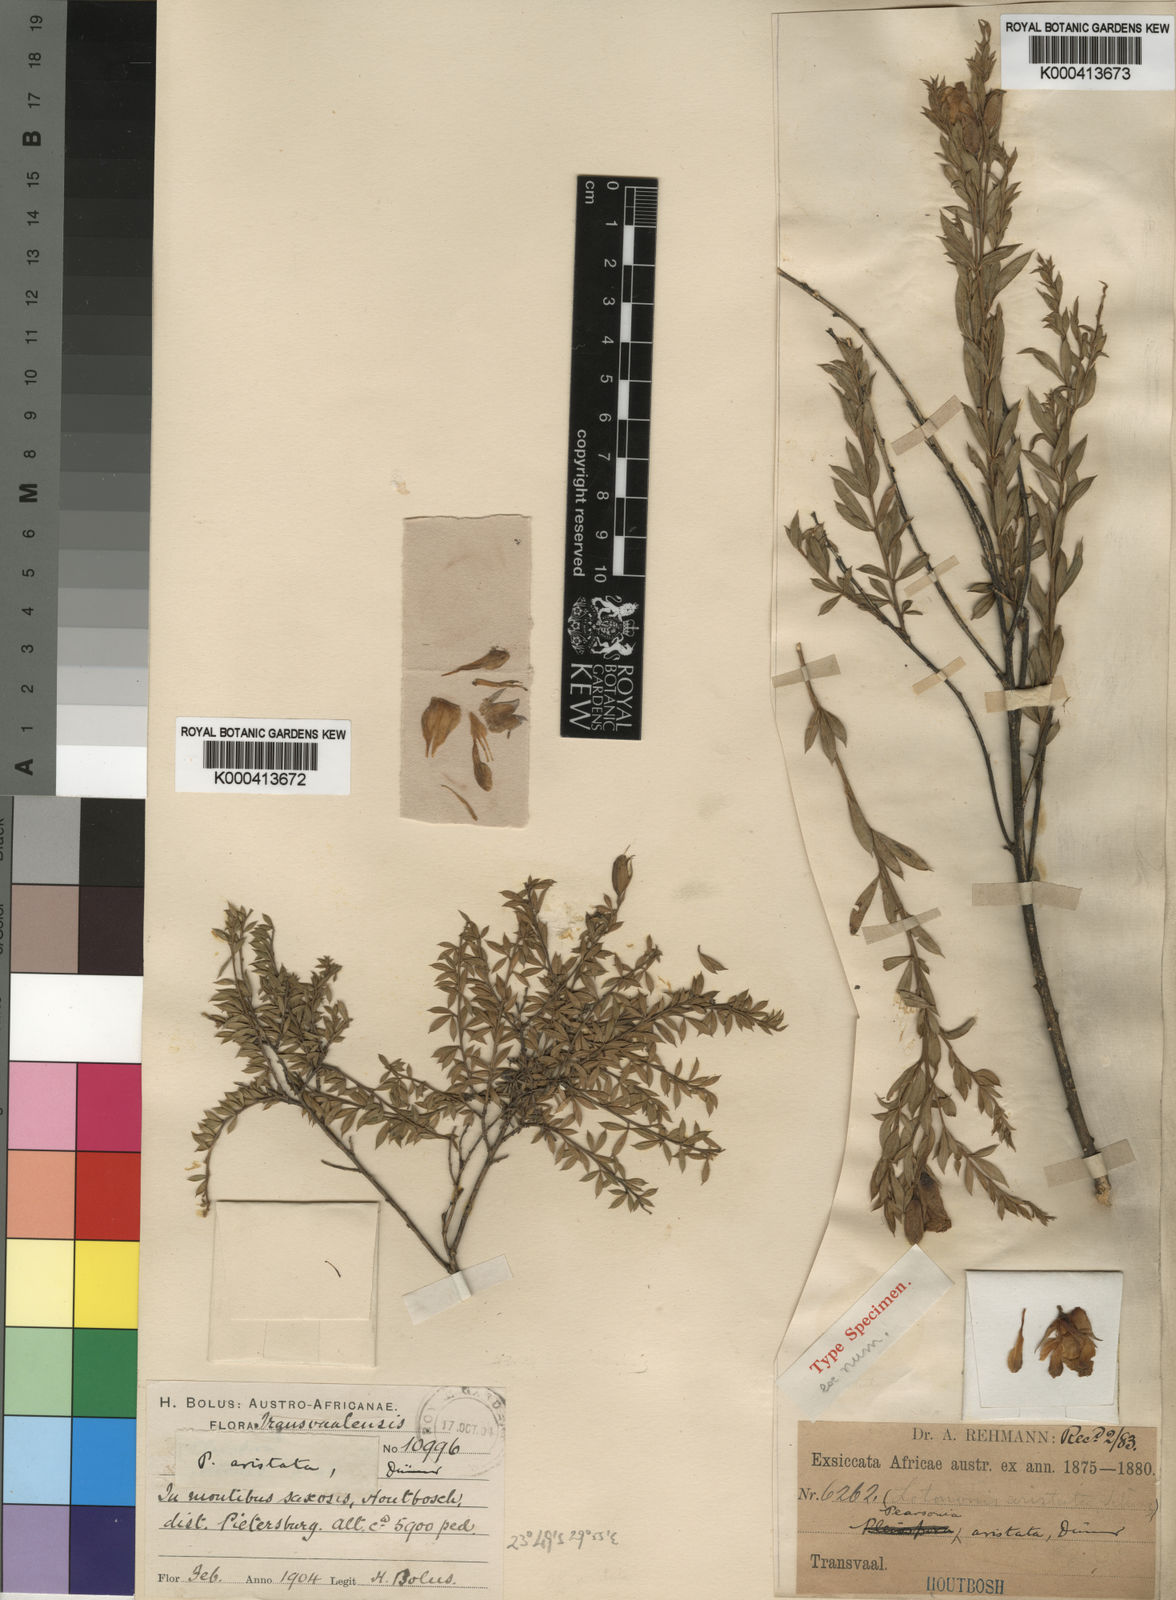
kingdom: Plantae
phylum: Tracheophyta
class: Magnoliopsida
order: Fabales
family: Fabaceae
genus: Pearsonia
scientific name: Pearsonia aristata
